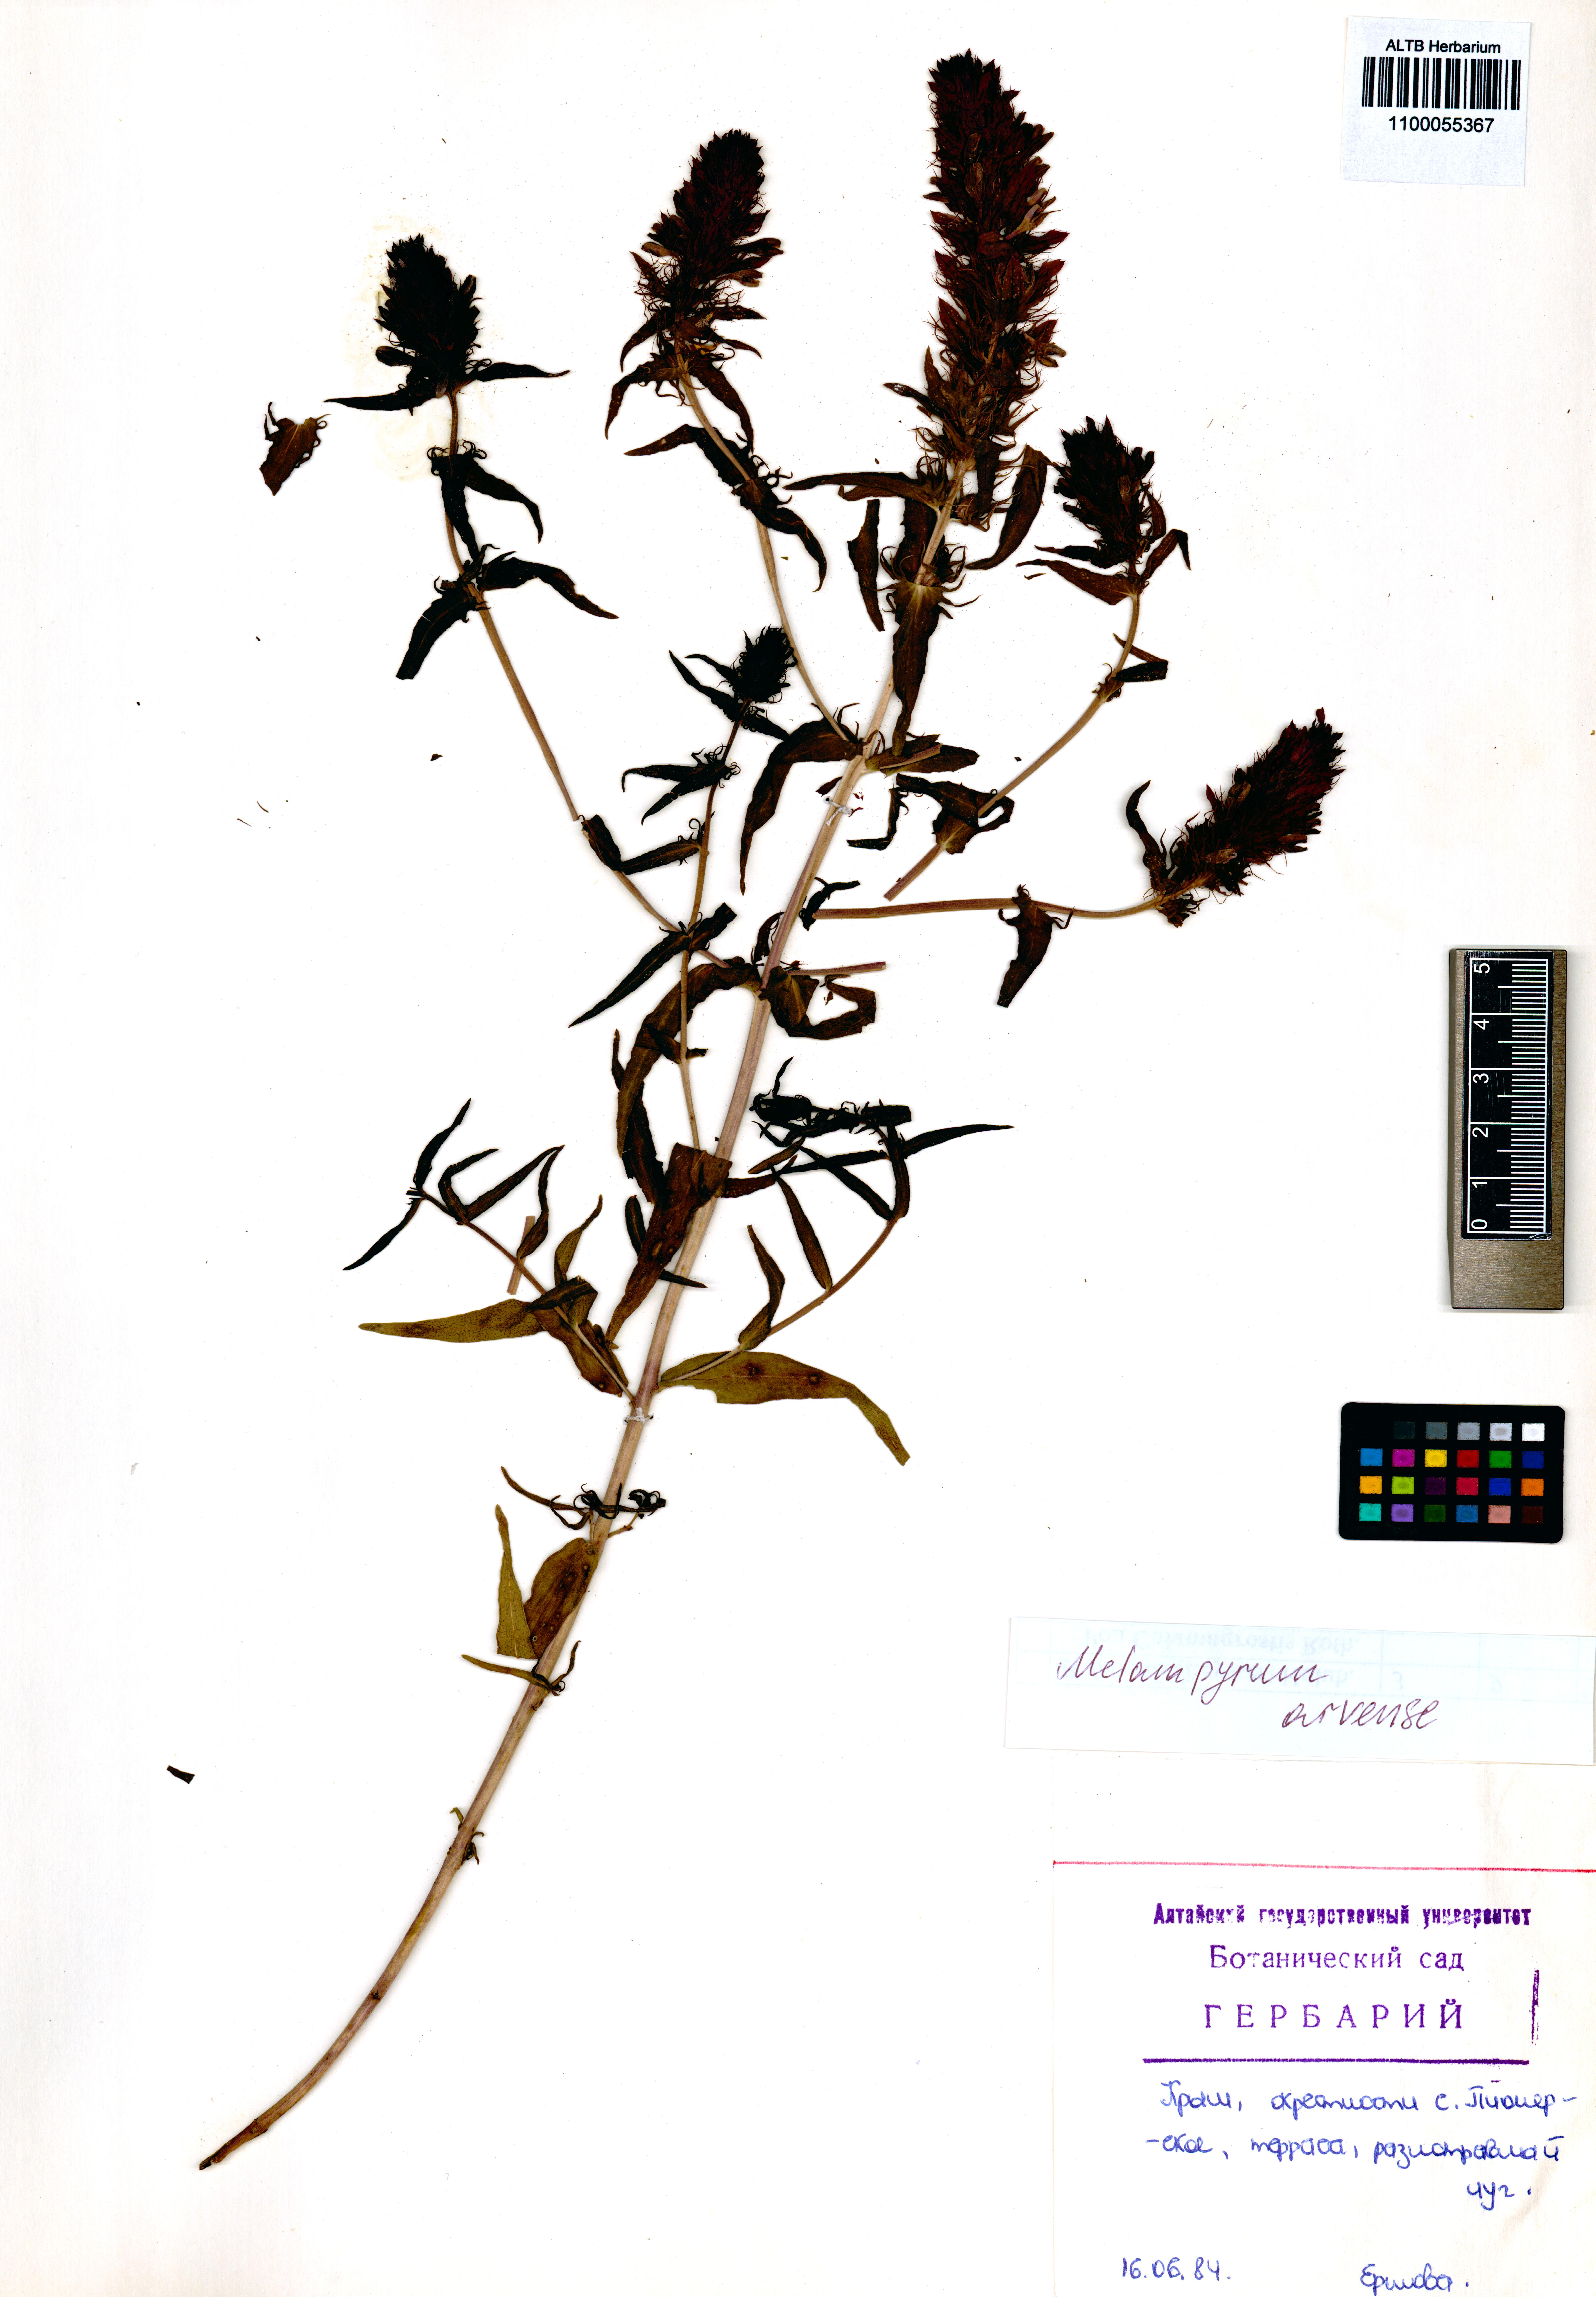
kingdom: Plantae
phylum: Tracheophyta
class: Magnoliopsida
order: Lamiales
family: Orobanchaceae
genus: Melampyrum
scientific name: Melampyrum arvense
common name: Field cow-wheat
